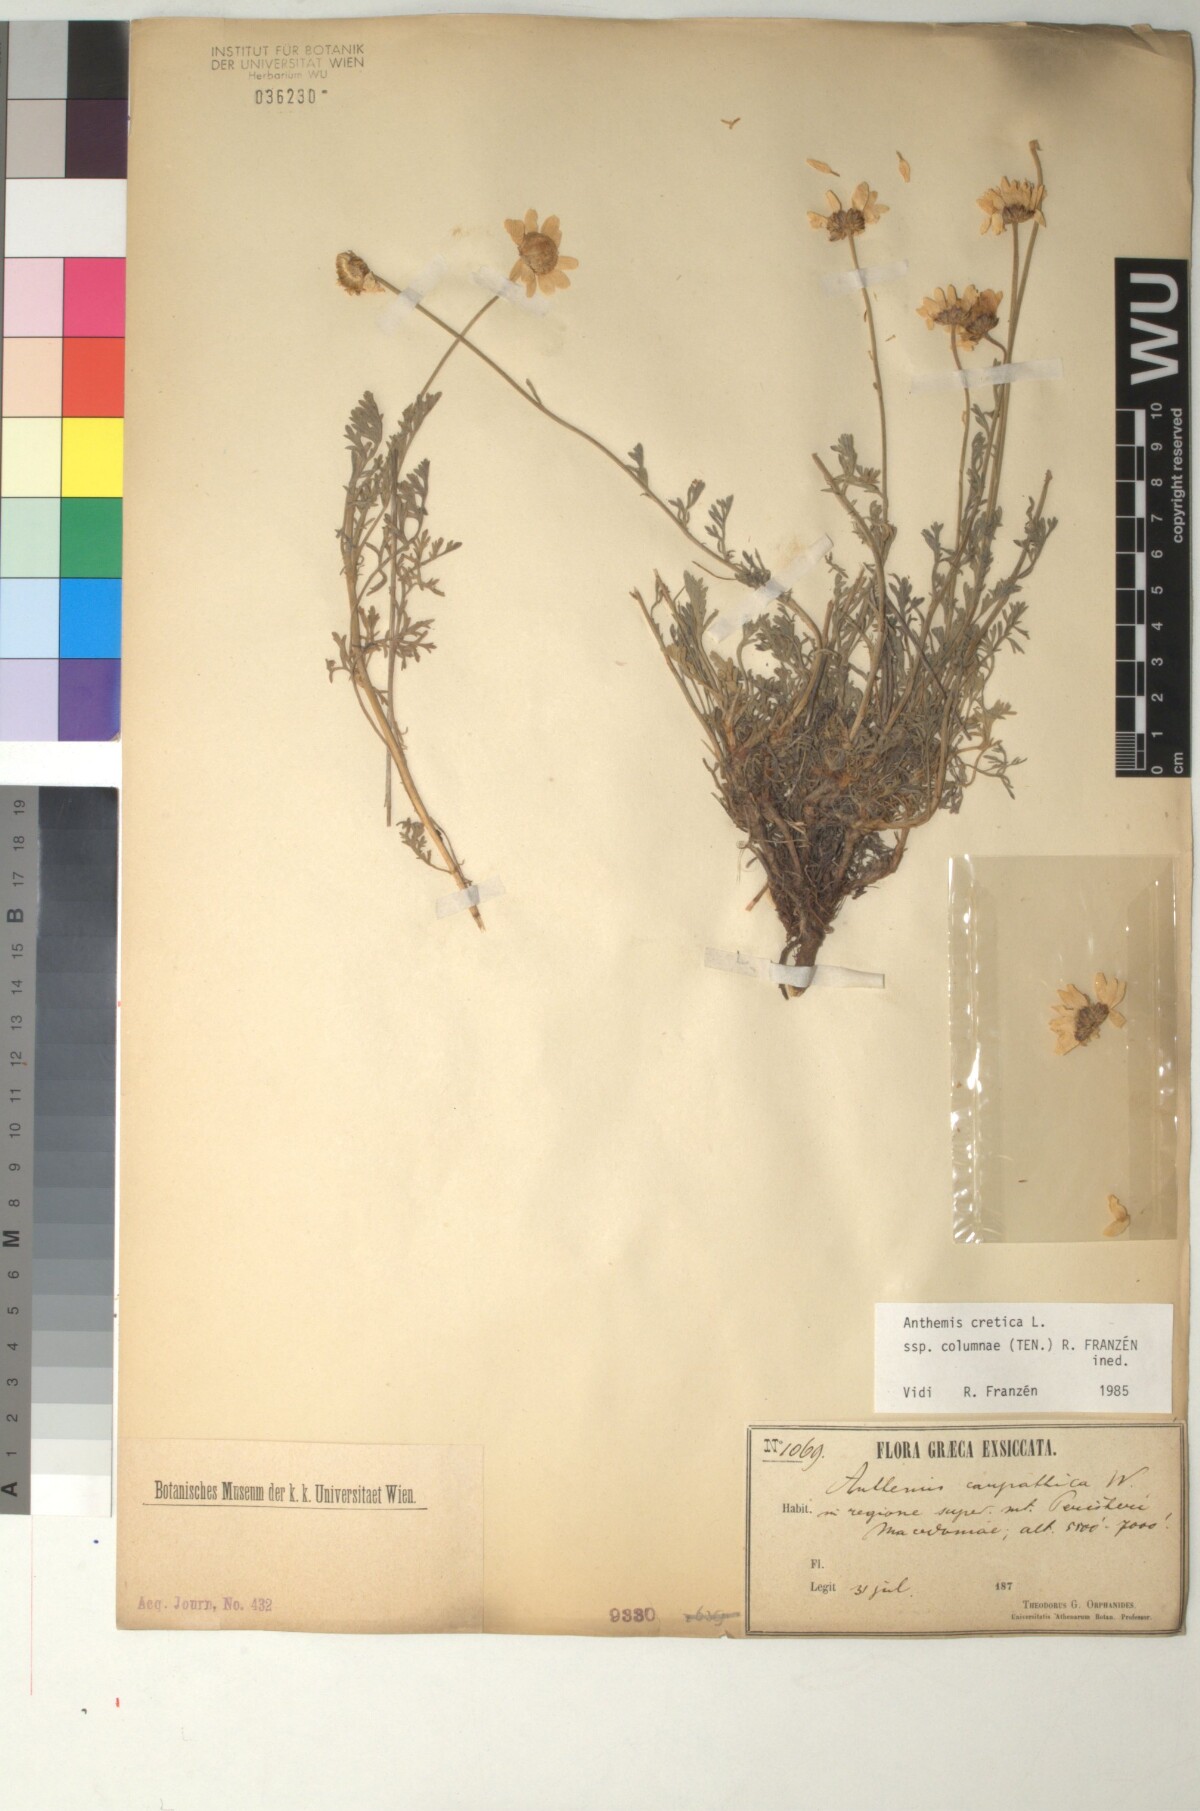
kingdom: Plantae
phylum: Tracheophyta
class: Magnoliopsida
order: Asterales
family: Asteraceae
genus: Anthemis
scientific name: Anthemis cretica
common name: Mountain dog-daisy
